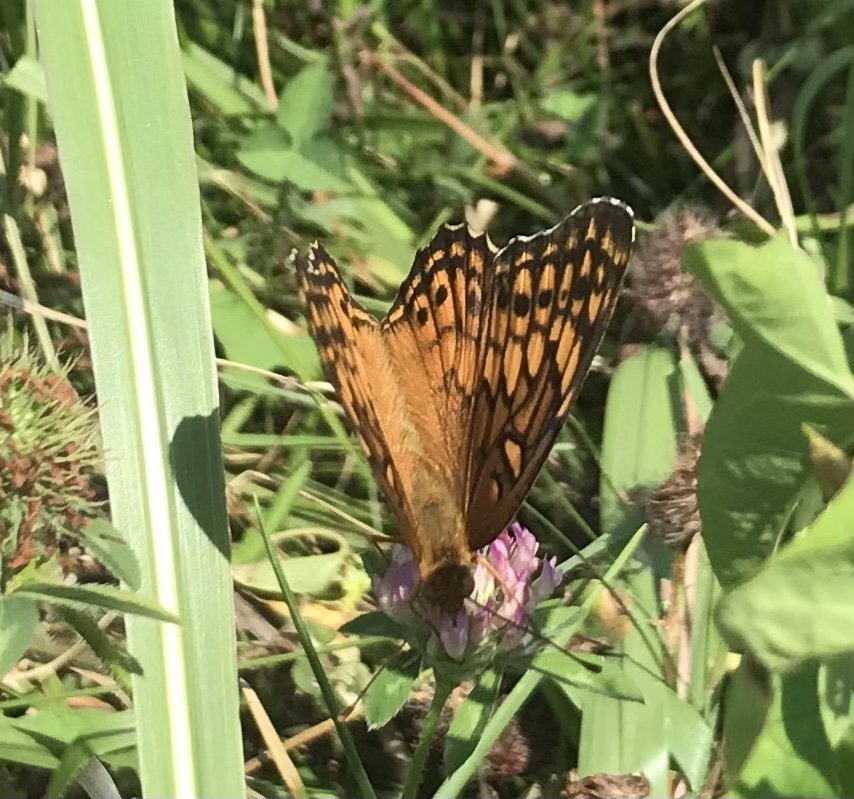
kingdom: Animalia
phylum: Arthropoda
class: Insecta
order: Lepidoptera
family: Nymphalidae
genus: Euptoieta
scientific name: Euptoieta claudia
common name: Variegated Fritillary
